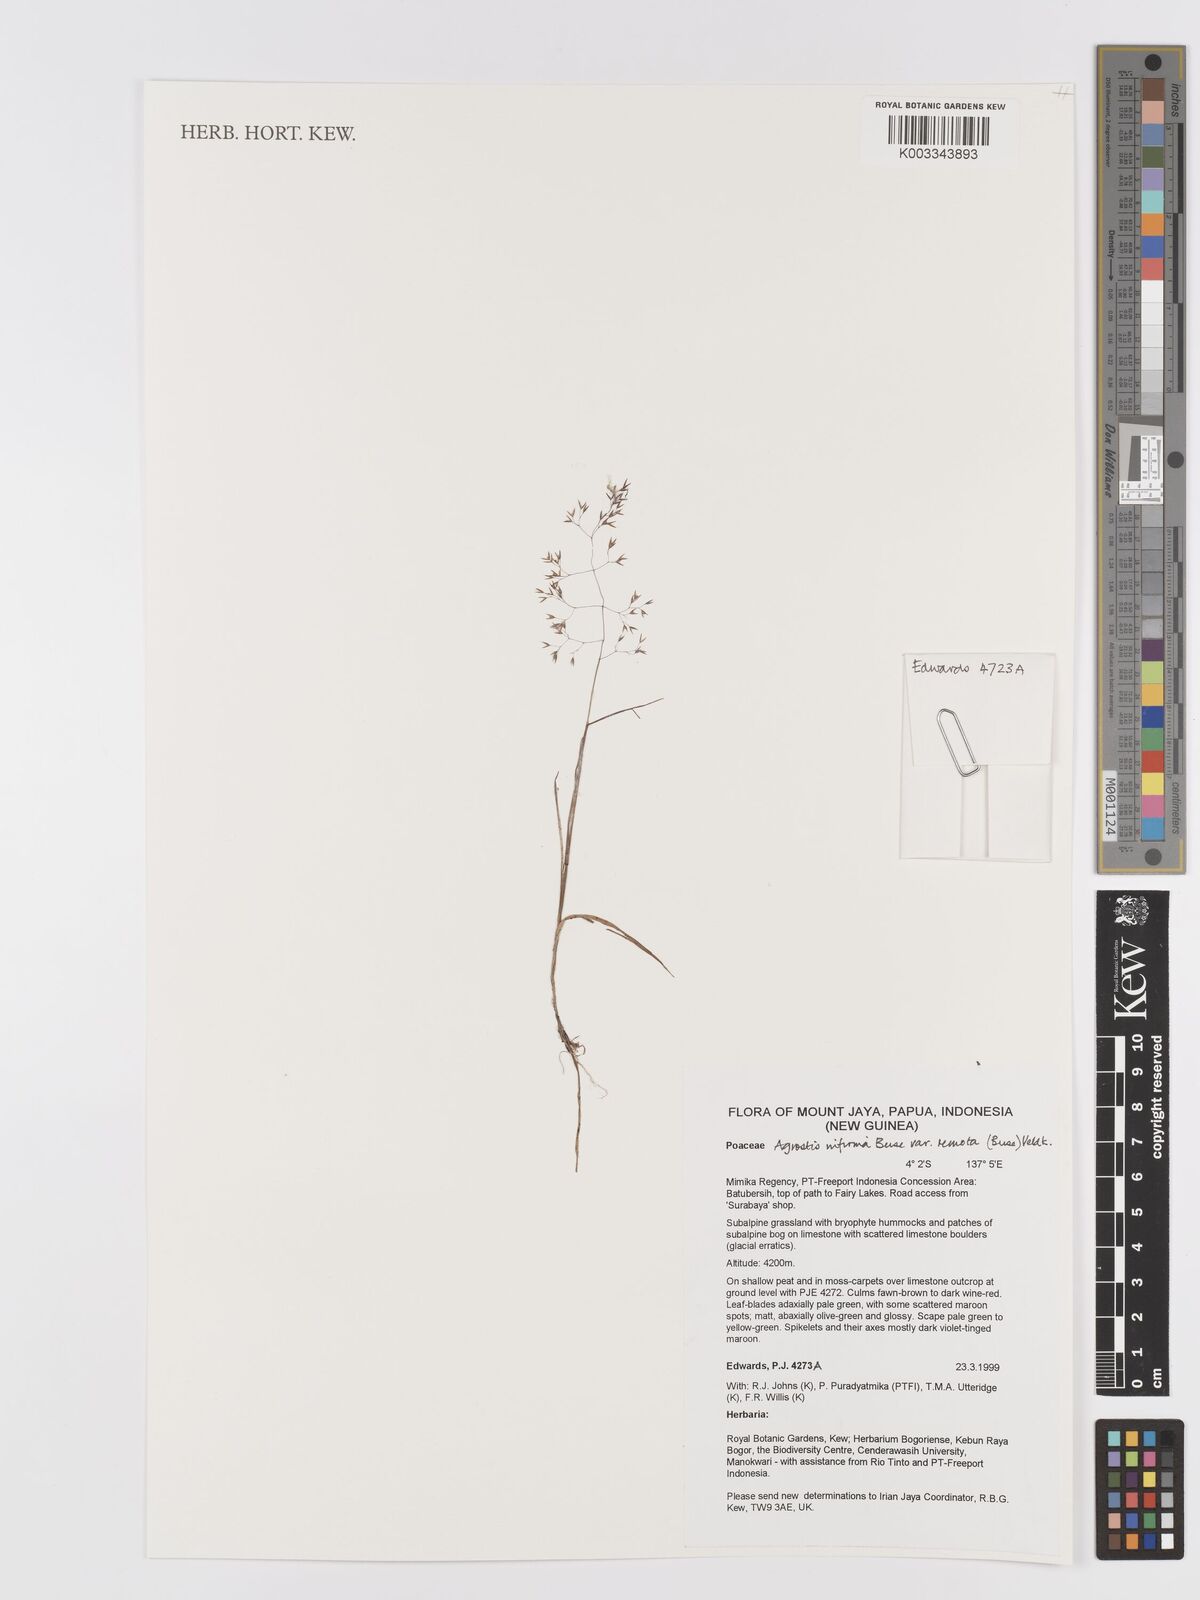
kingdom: Plantae
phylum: Tracheophyta
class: Liliopsida
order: Poales
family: Poaceae
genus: Agrostis
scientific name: Agrostis infirma
